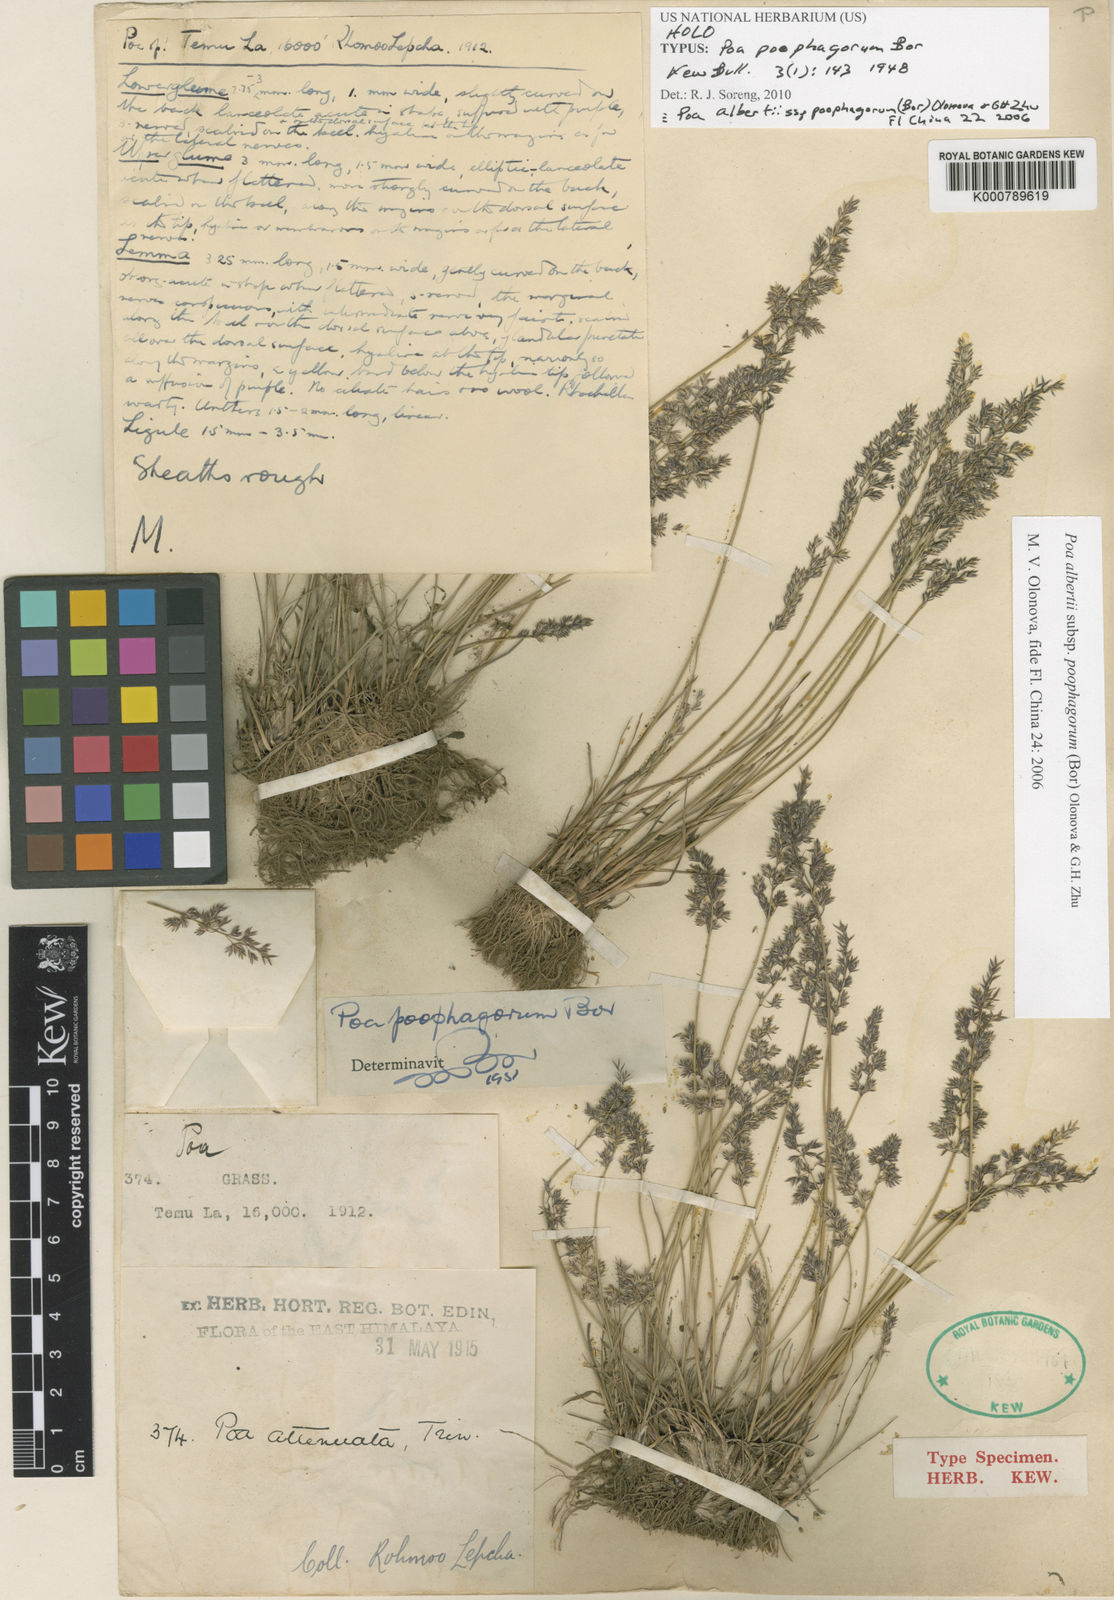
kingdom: Plantae
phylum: Tracheophyta
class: Liliopsida
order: Poales
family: Poaceae
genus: Poa
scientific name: Poa alberti
